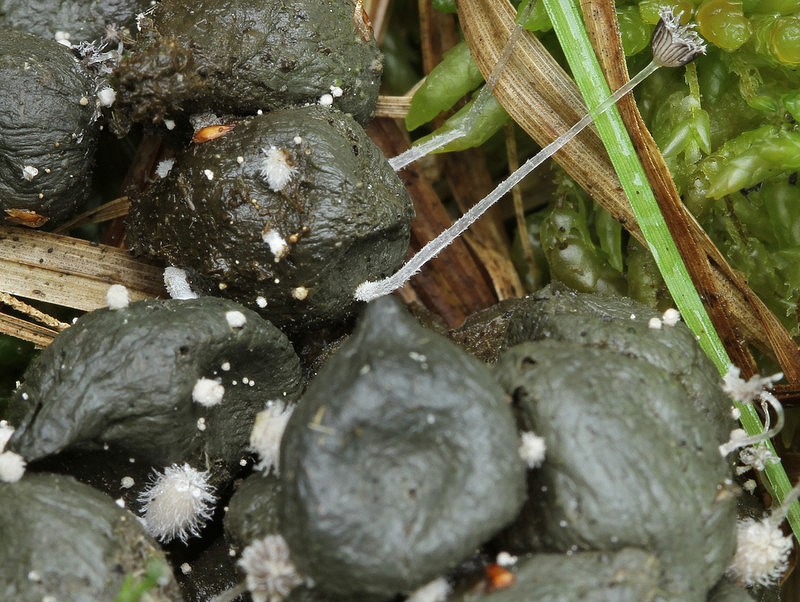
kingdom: Fungi
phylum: Basidiomycota
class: Agaricomycetes
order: Agaricales
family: Psathyrellaceae
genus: Coprinopsis
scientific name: Coprinopsis radiata
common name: lille gødnings-blækhat
